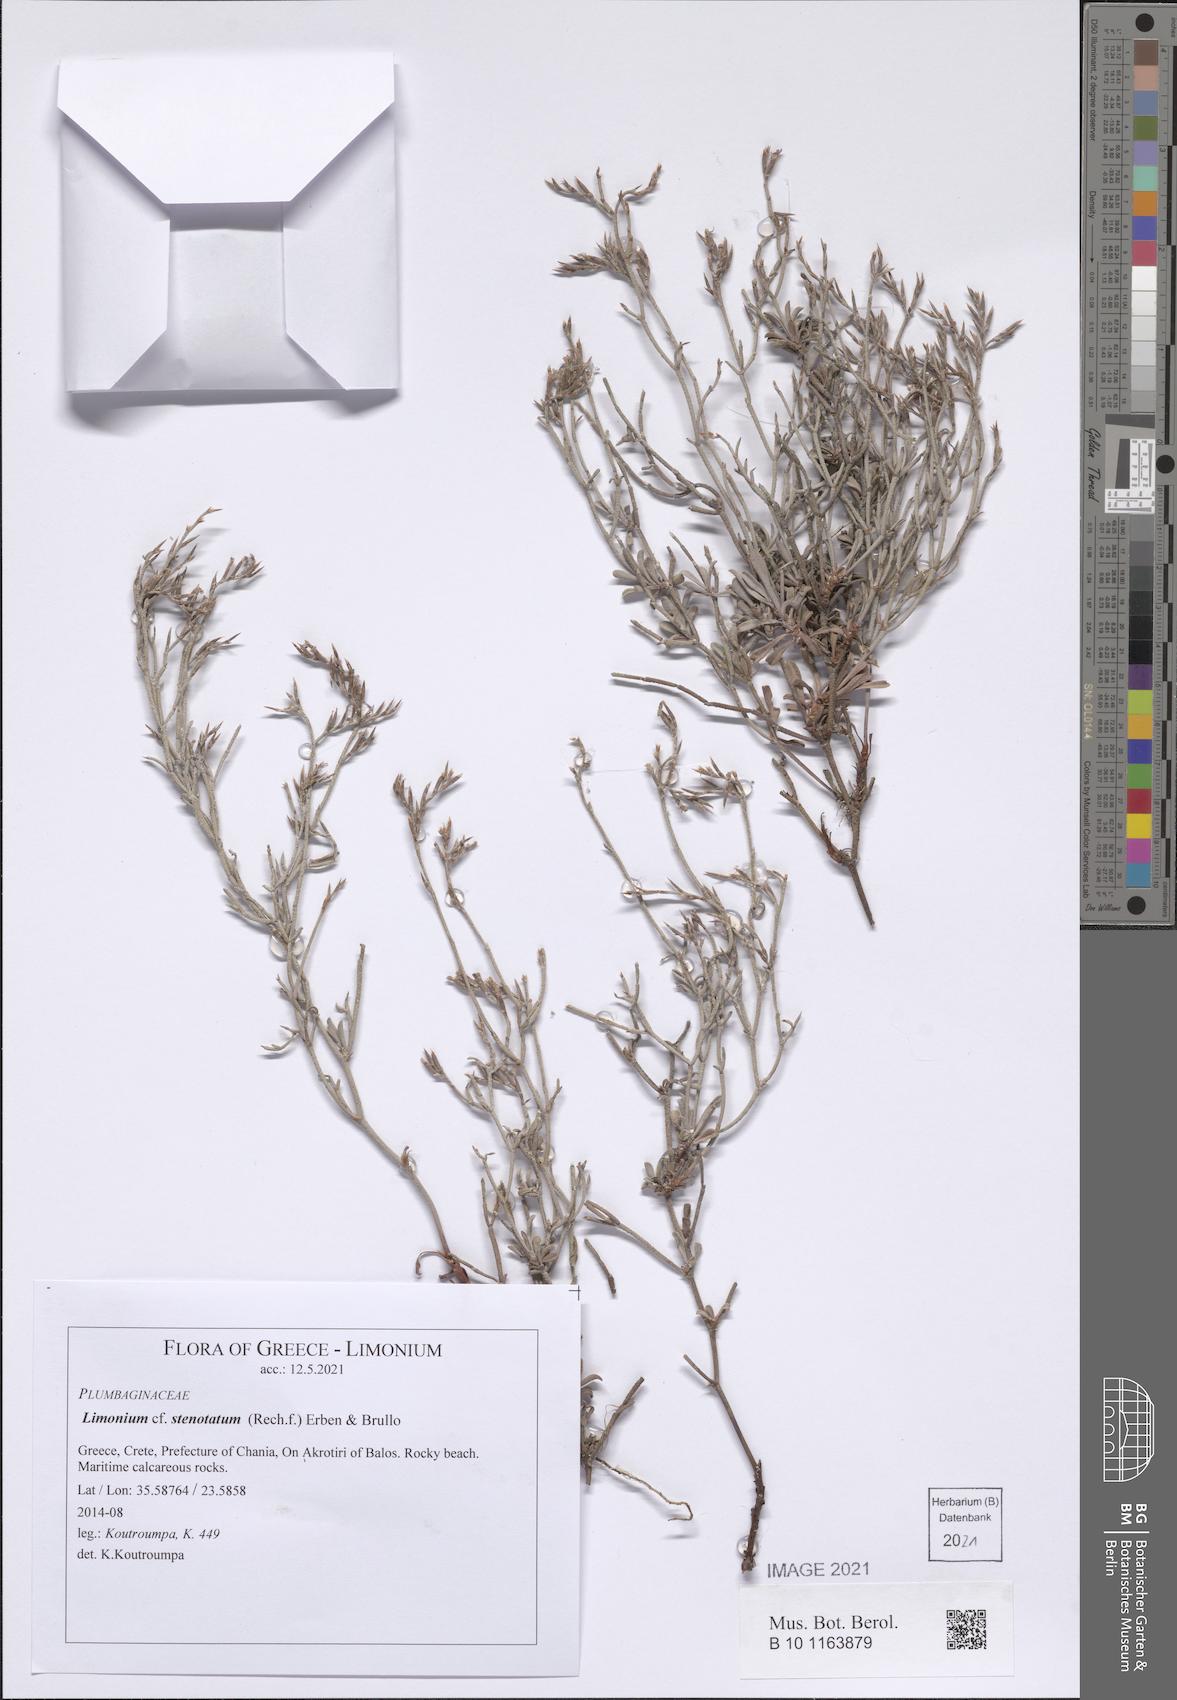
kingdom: Plantae
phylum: Tracheophyta
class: Magnoliopsida
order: Caryophyllales
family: Plumbaginaceae
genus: Limonium
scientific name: Limonium stenotatum
